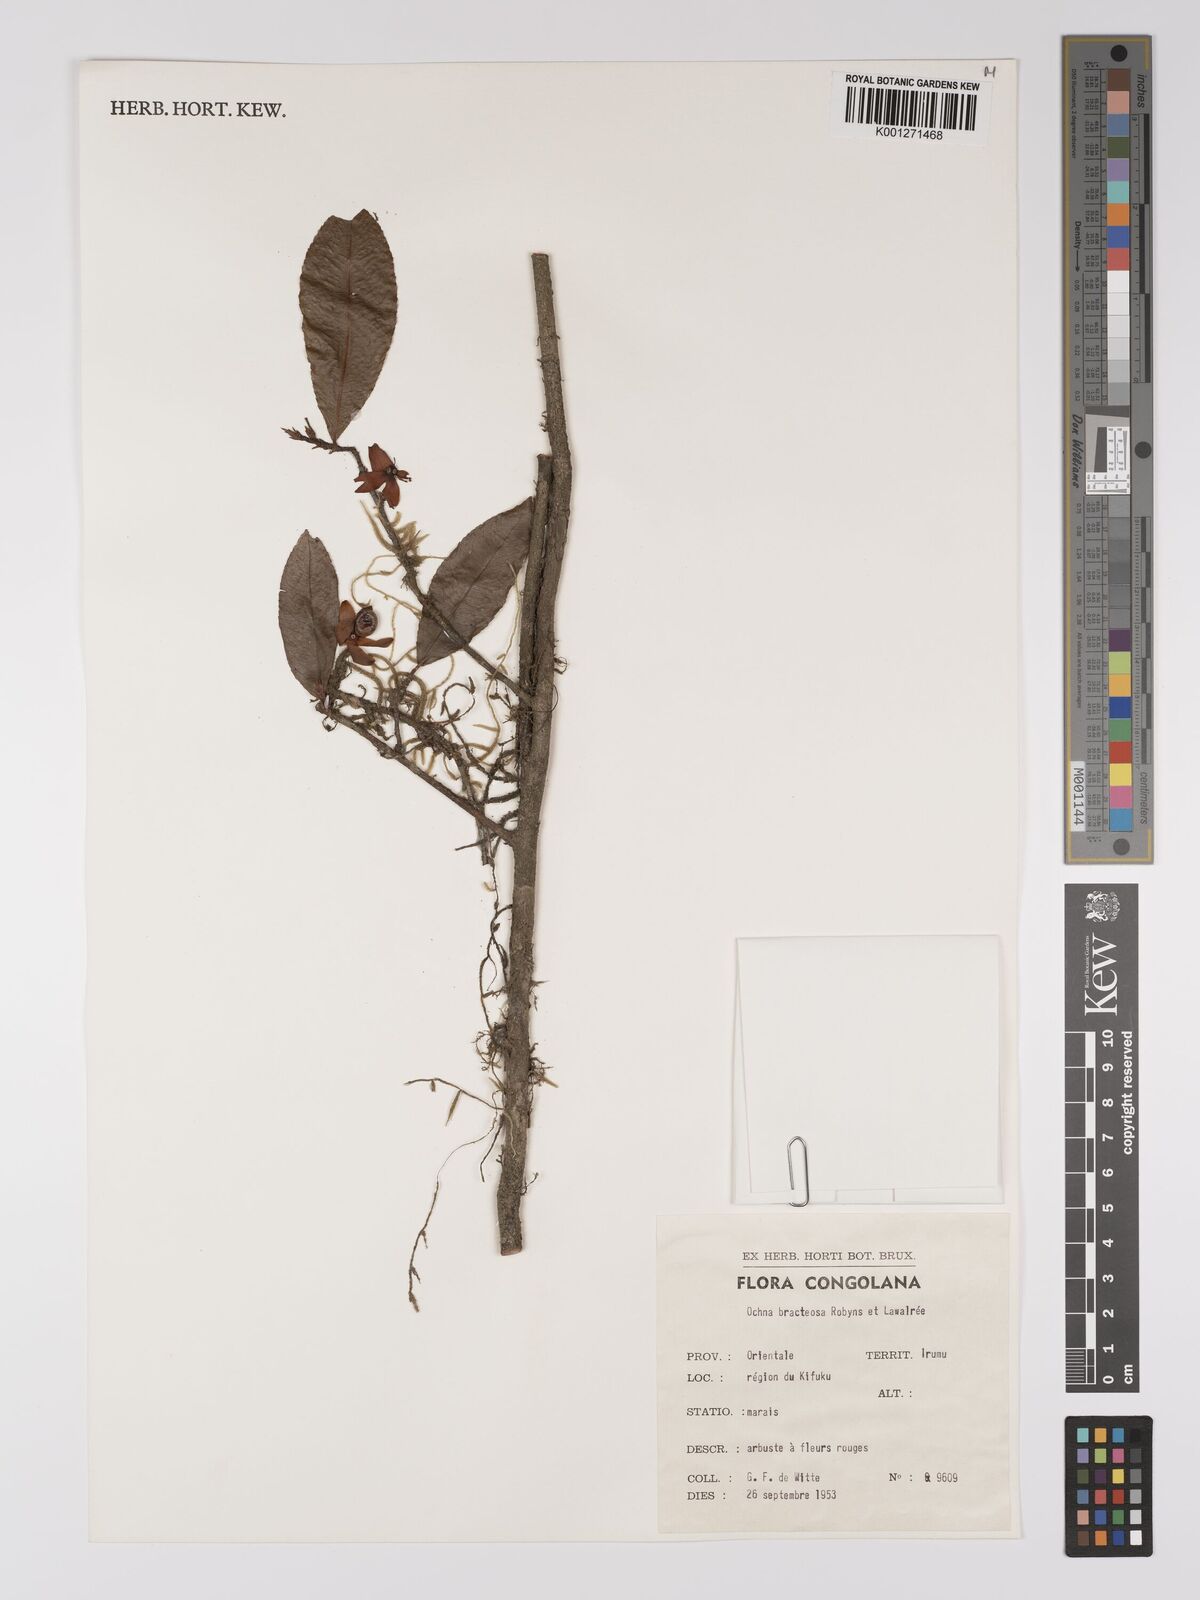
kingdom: Plantae
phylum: Tracheophyta
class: Magnoliopsida
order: Malpighiales
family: Ochnaceae
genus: Ochna
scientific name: Ochna bracteosa
